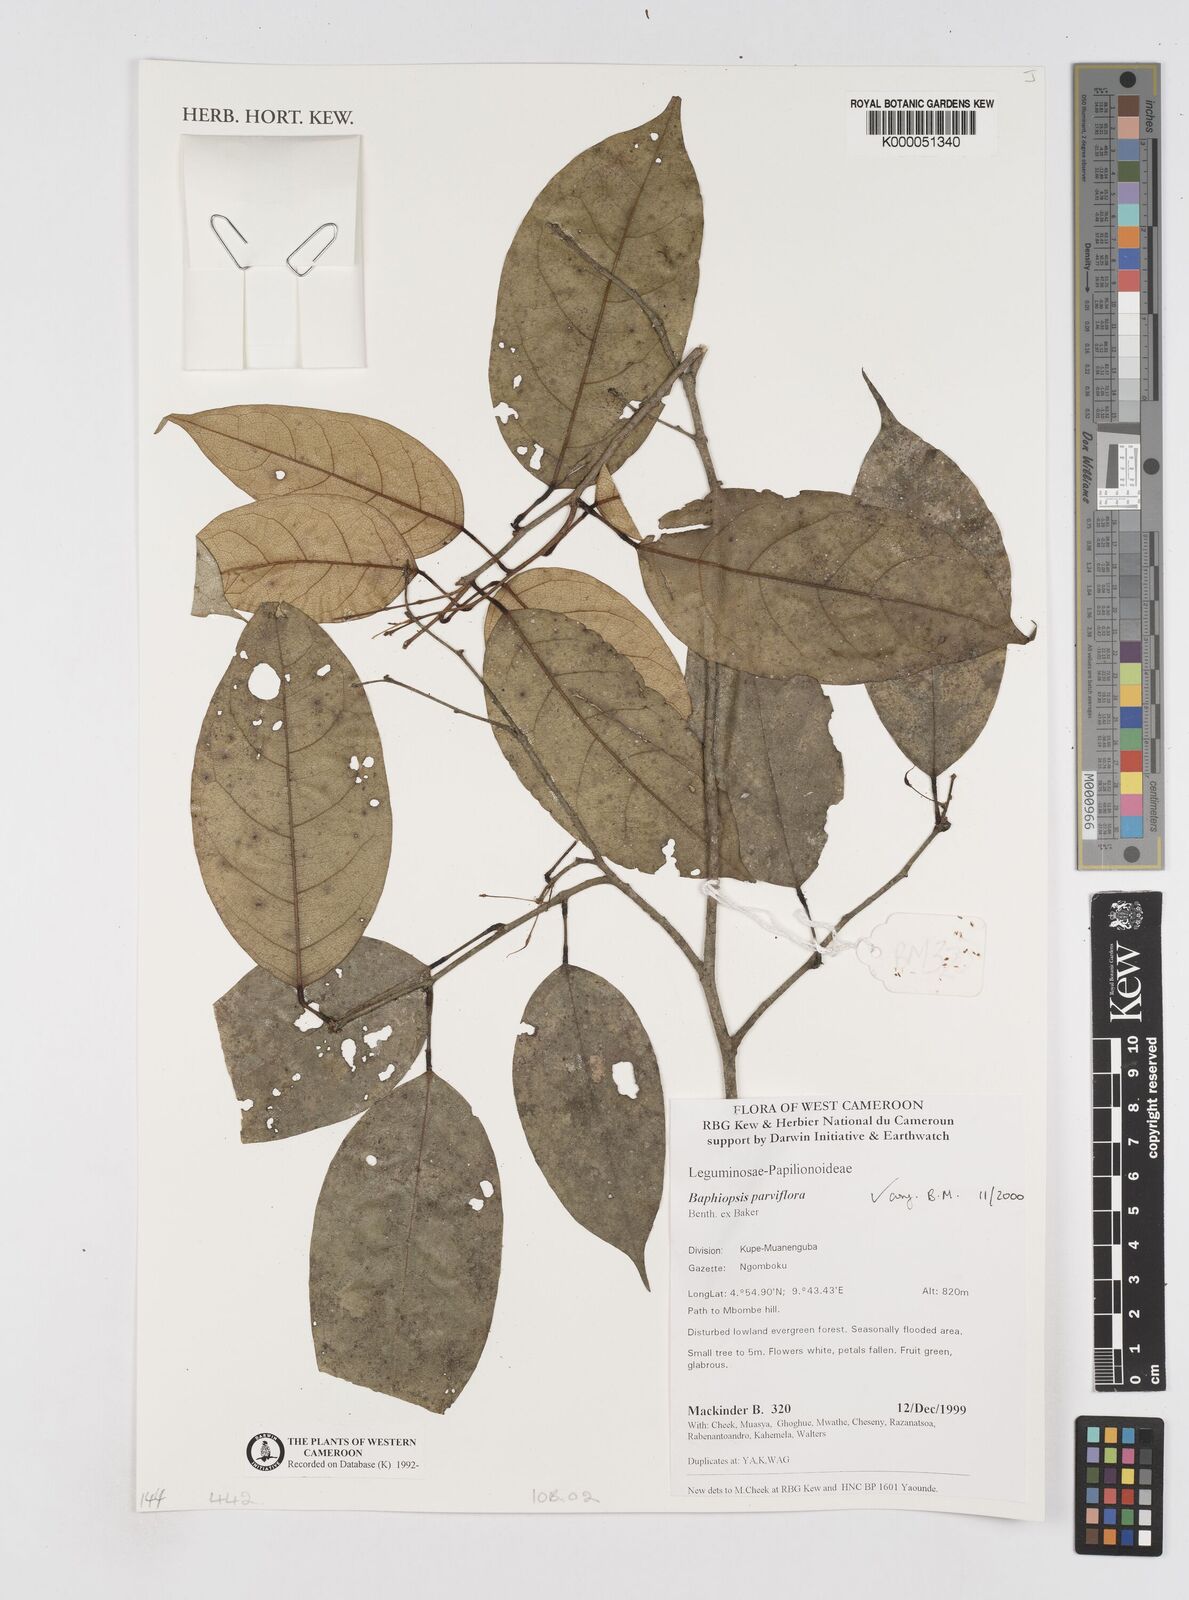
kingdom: Plantae
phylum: Tracheophyta
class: Magnoliopsida
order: Fabales
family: Fabaceae
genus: Baphiopsis
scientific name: Baphiopsis parviflora
